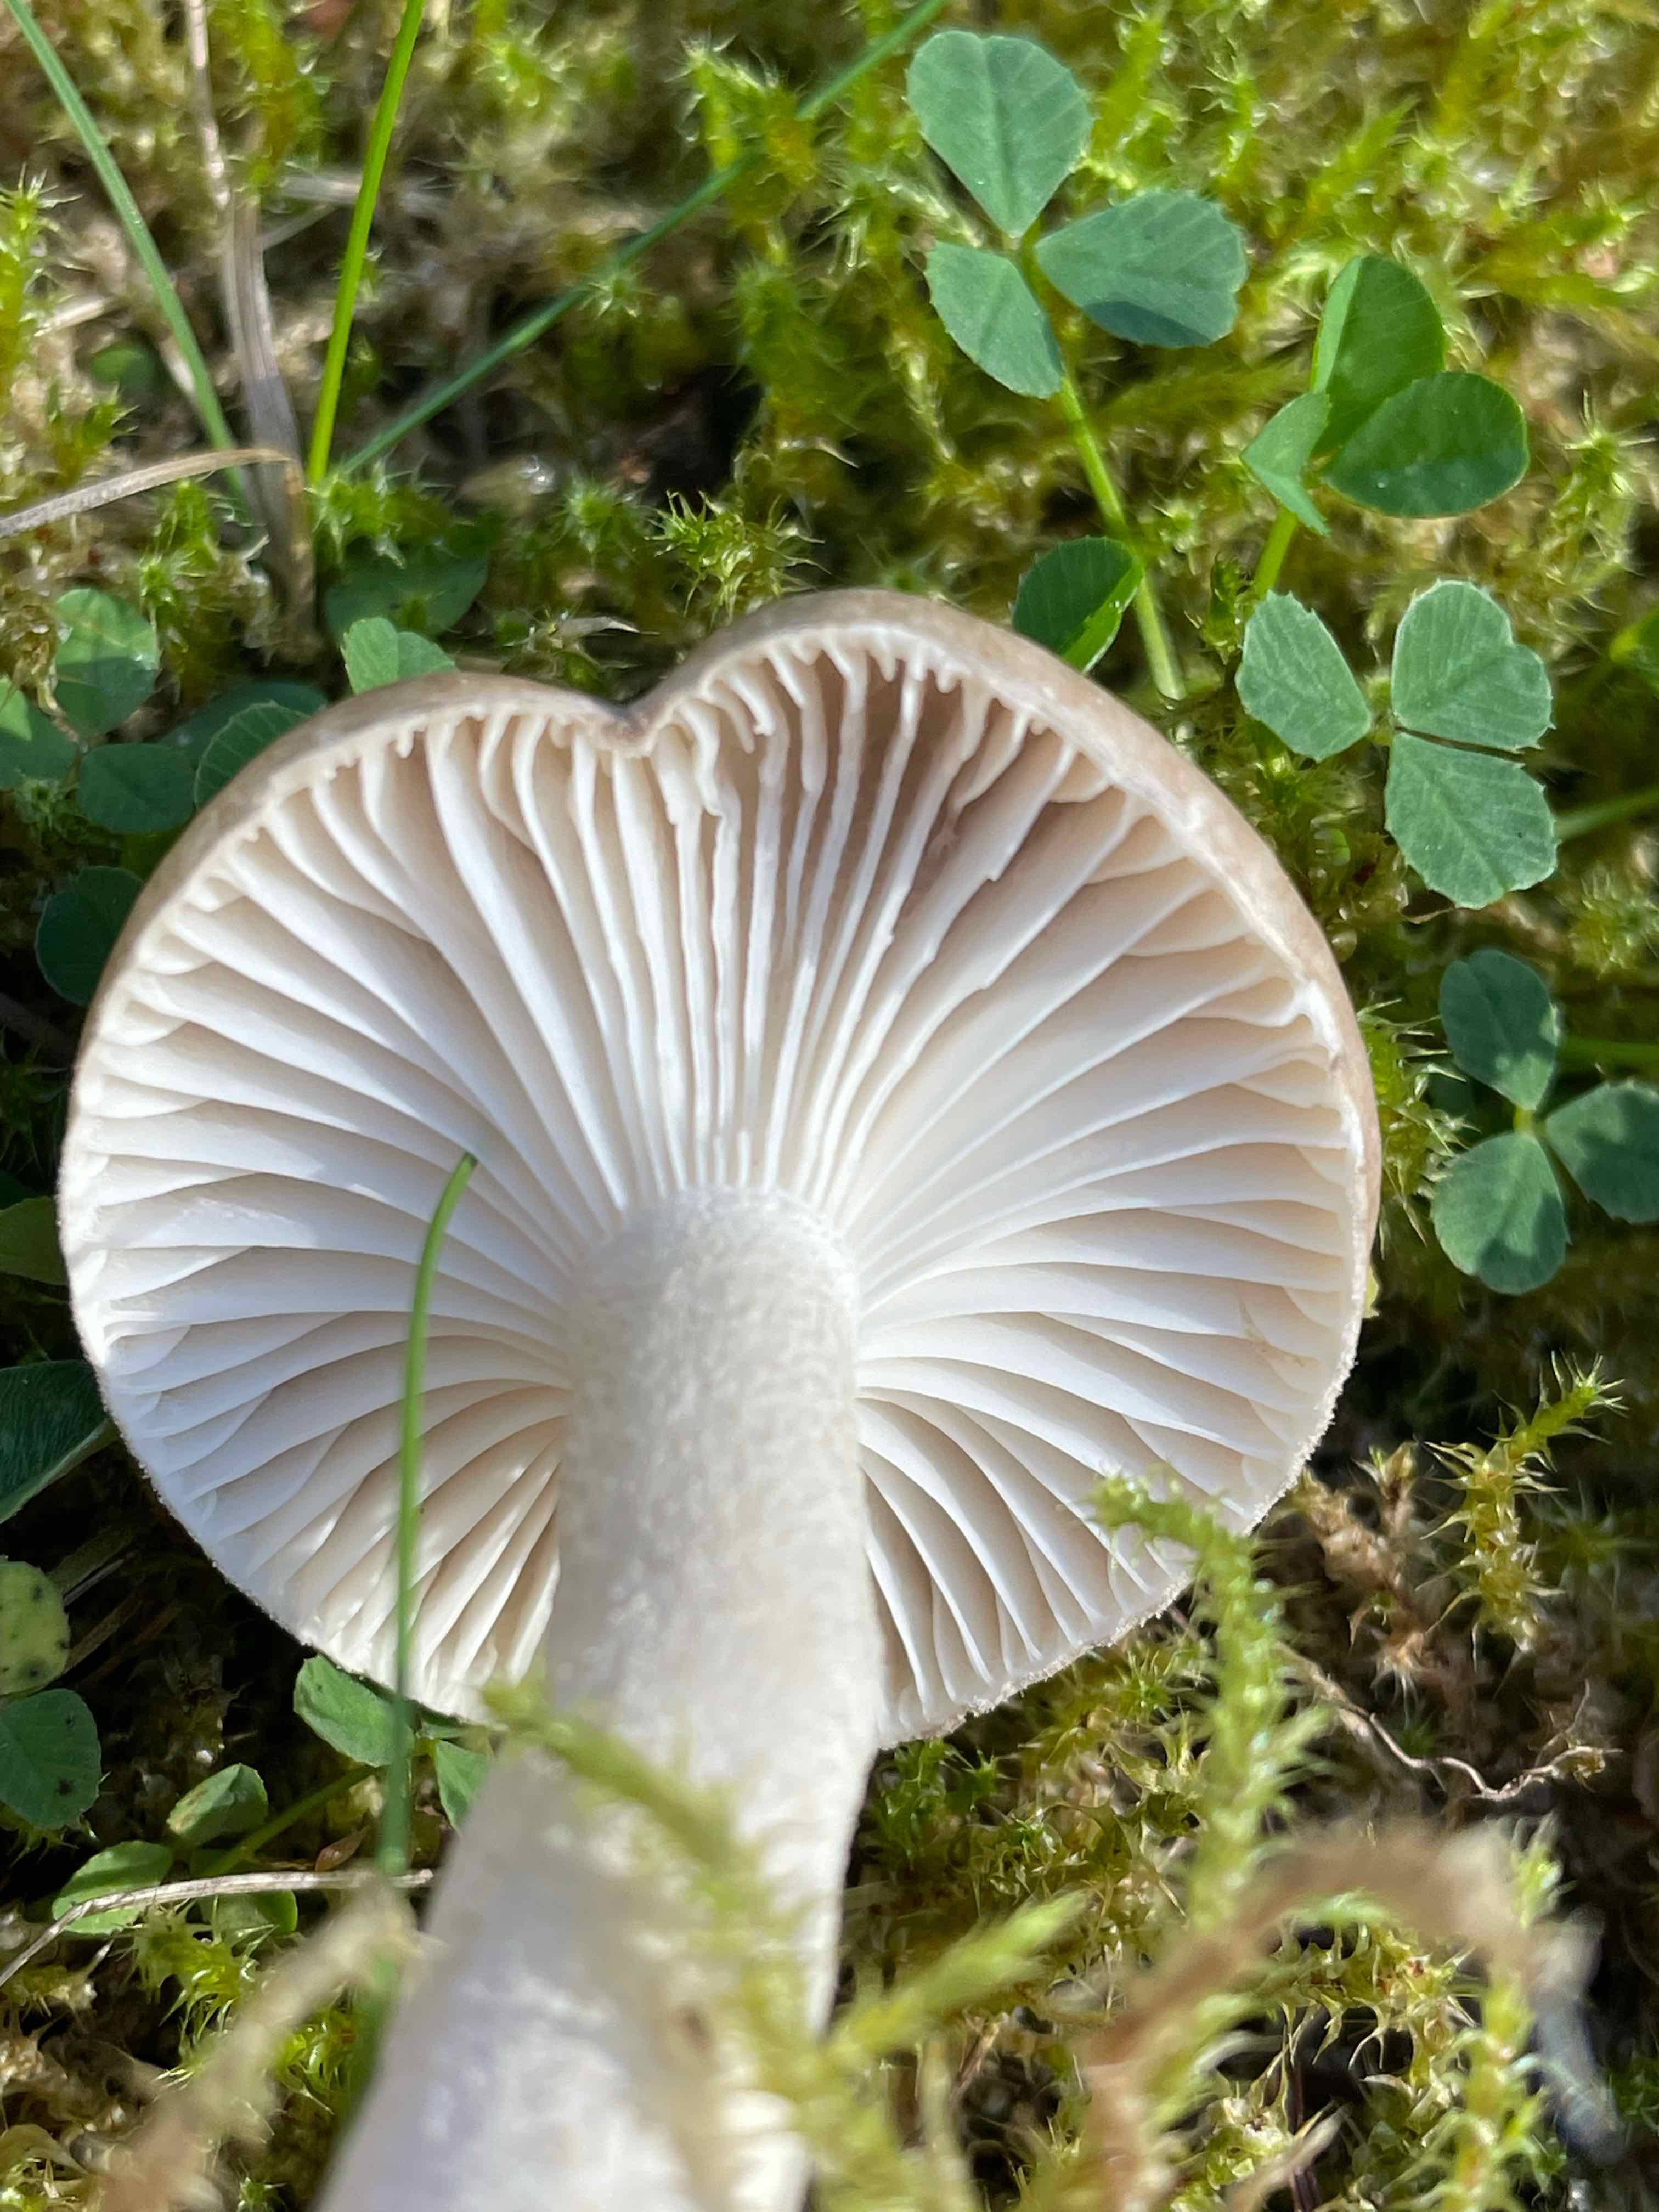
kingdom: Fungi
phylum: Basidiomycota
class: Agaricomycetes
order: Agaricales
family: Hygrophoraceae
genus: Hygrophorus
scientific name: Hygrophorus agathosmus
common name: vellugtende sneglehat
